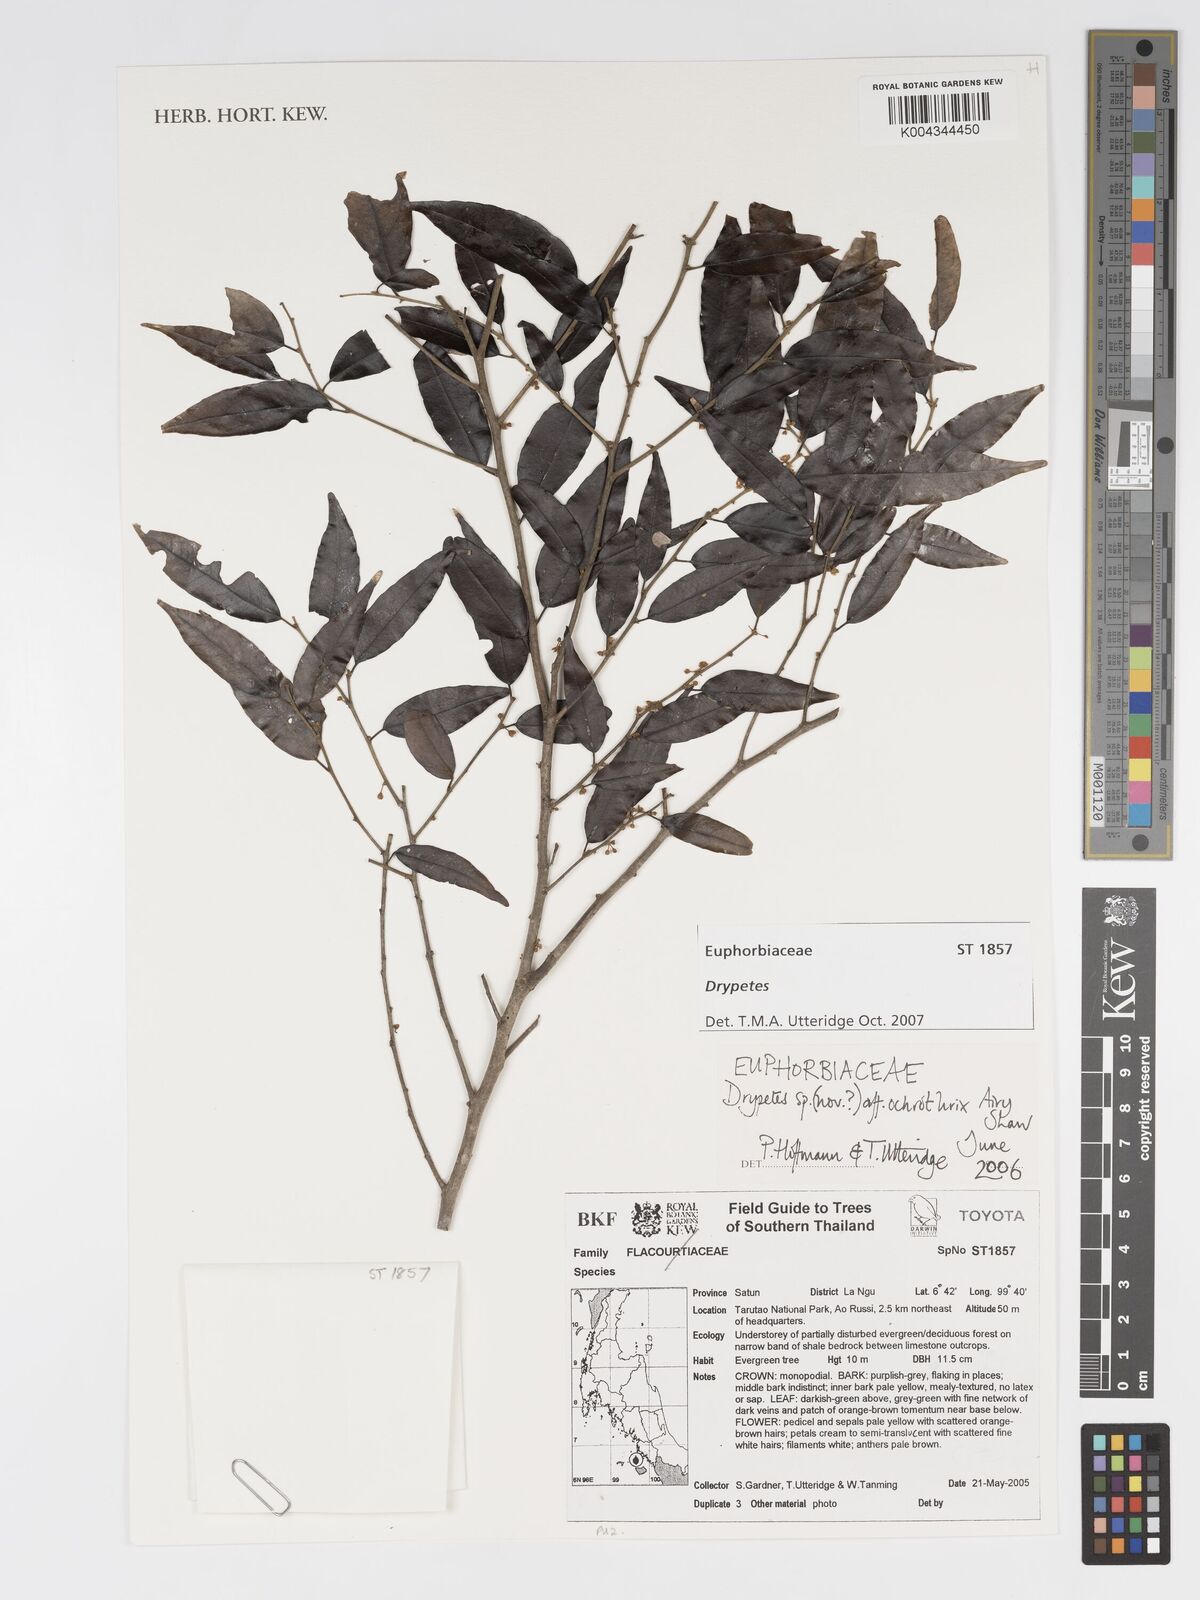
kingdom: Plantae
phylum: Tracheophyta
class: Magnoliopsida
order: Malpighiales
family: Putranjivaceae
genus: Drypetes
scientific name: Drypetes
